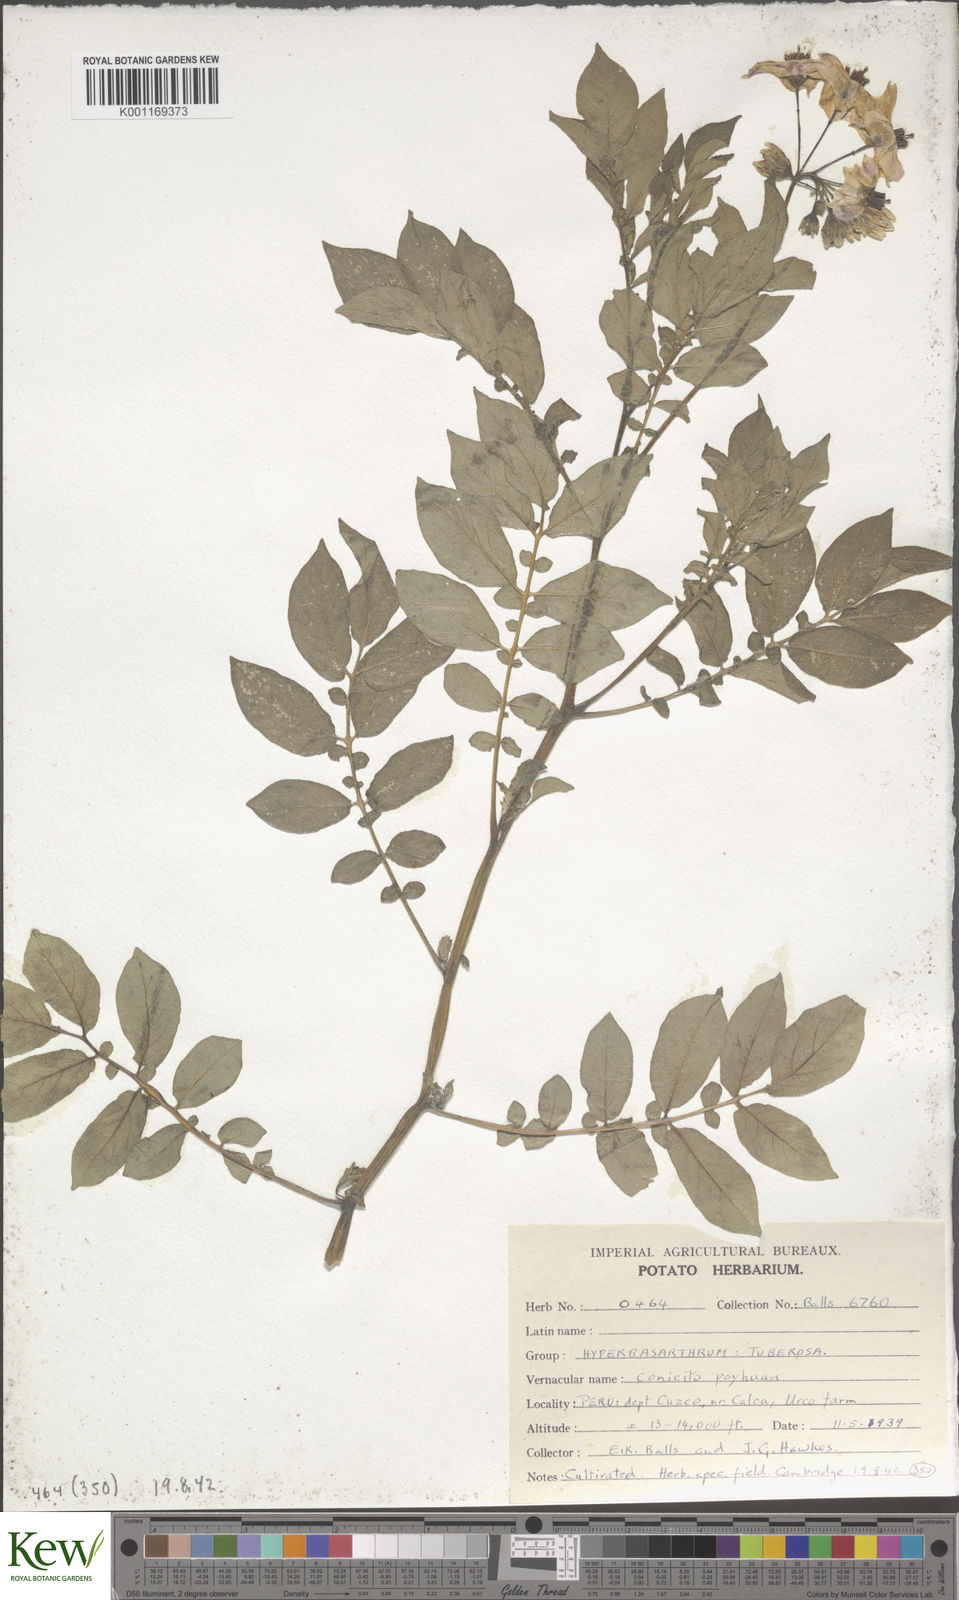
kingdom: Plantae
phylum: Tracheophyta
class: Magnoliopsida
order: Solanales
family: Solanaceae
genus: Solanum
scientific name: Solanum chaucha
